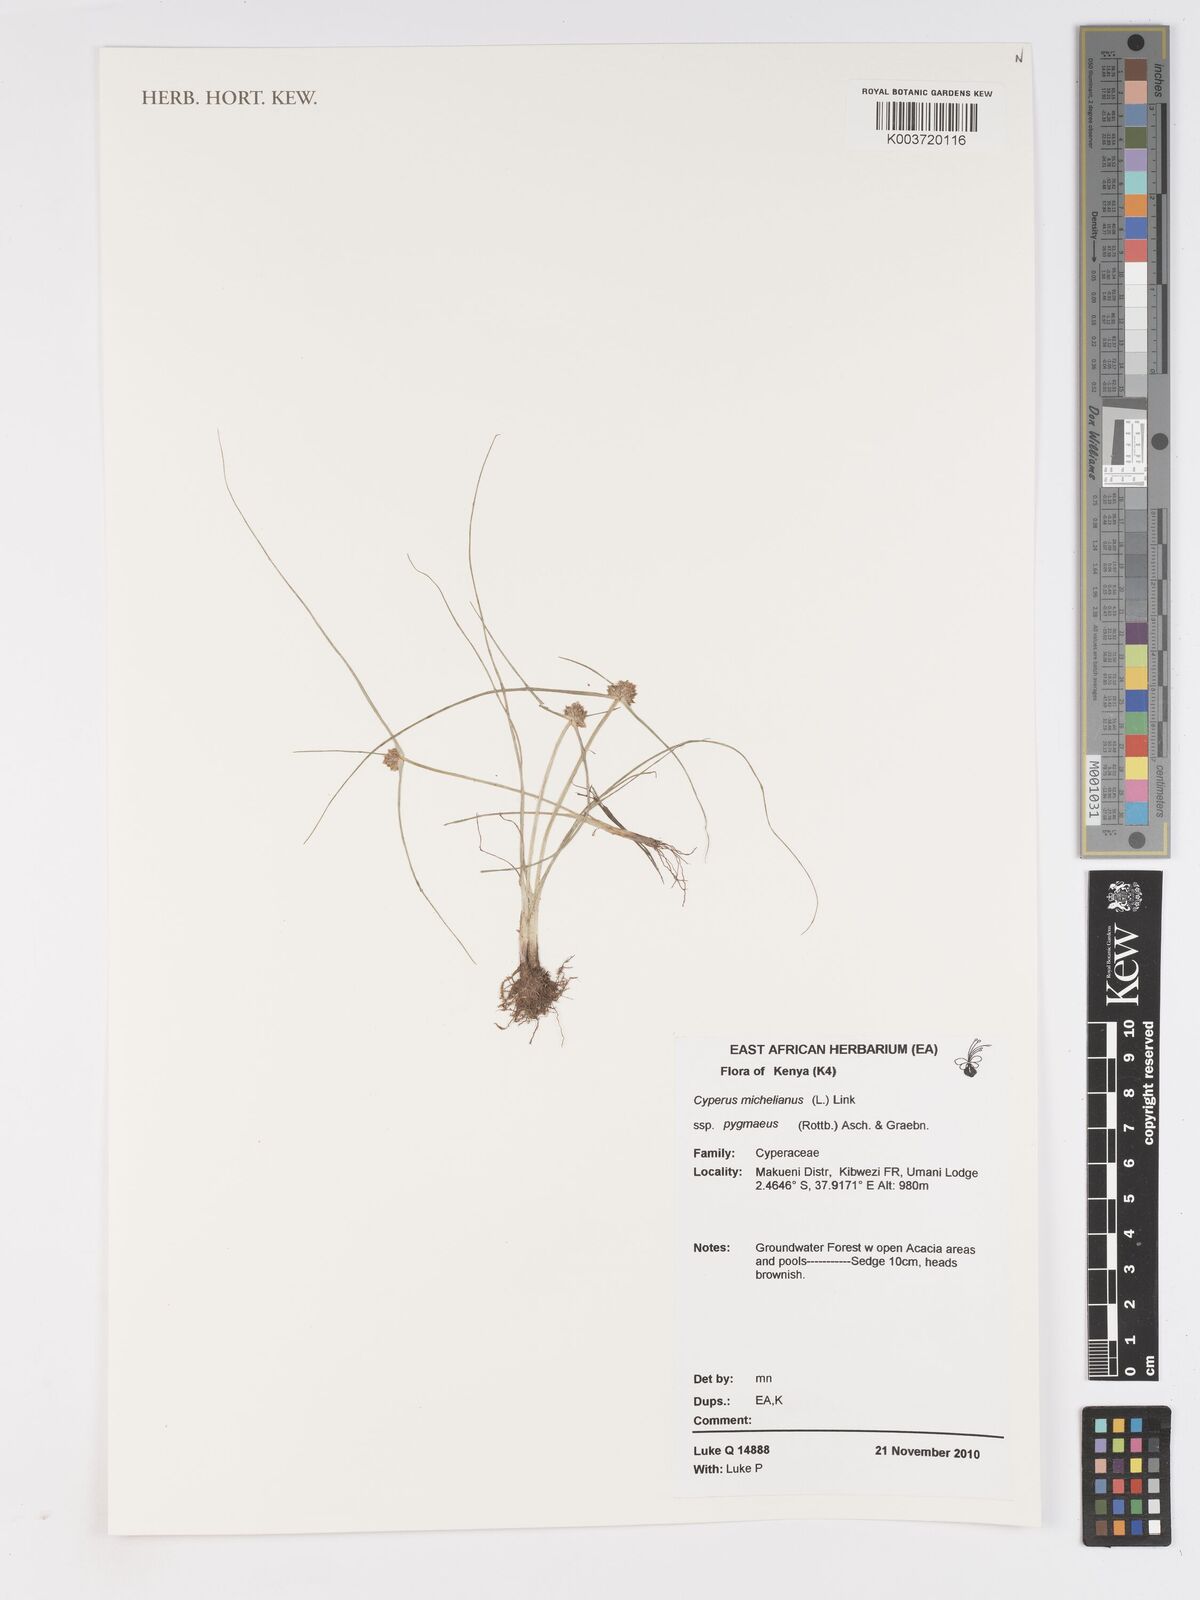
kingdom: Plantae
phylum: Tracheophyta
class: Liliopsida
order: Poales
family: Cyperaceae
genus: Cyperus
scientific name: Cyperus michelianus
